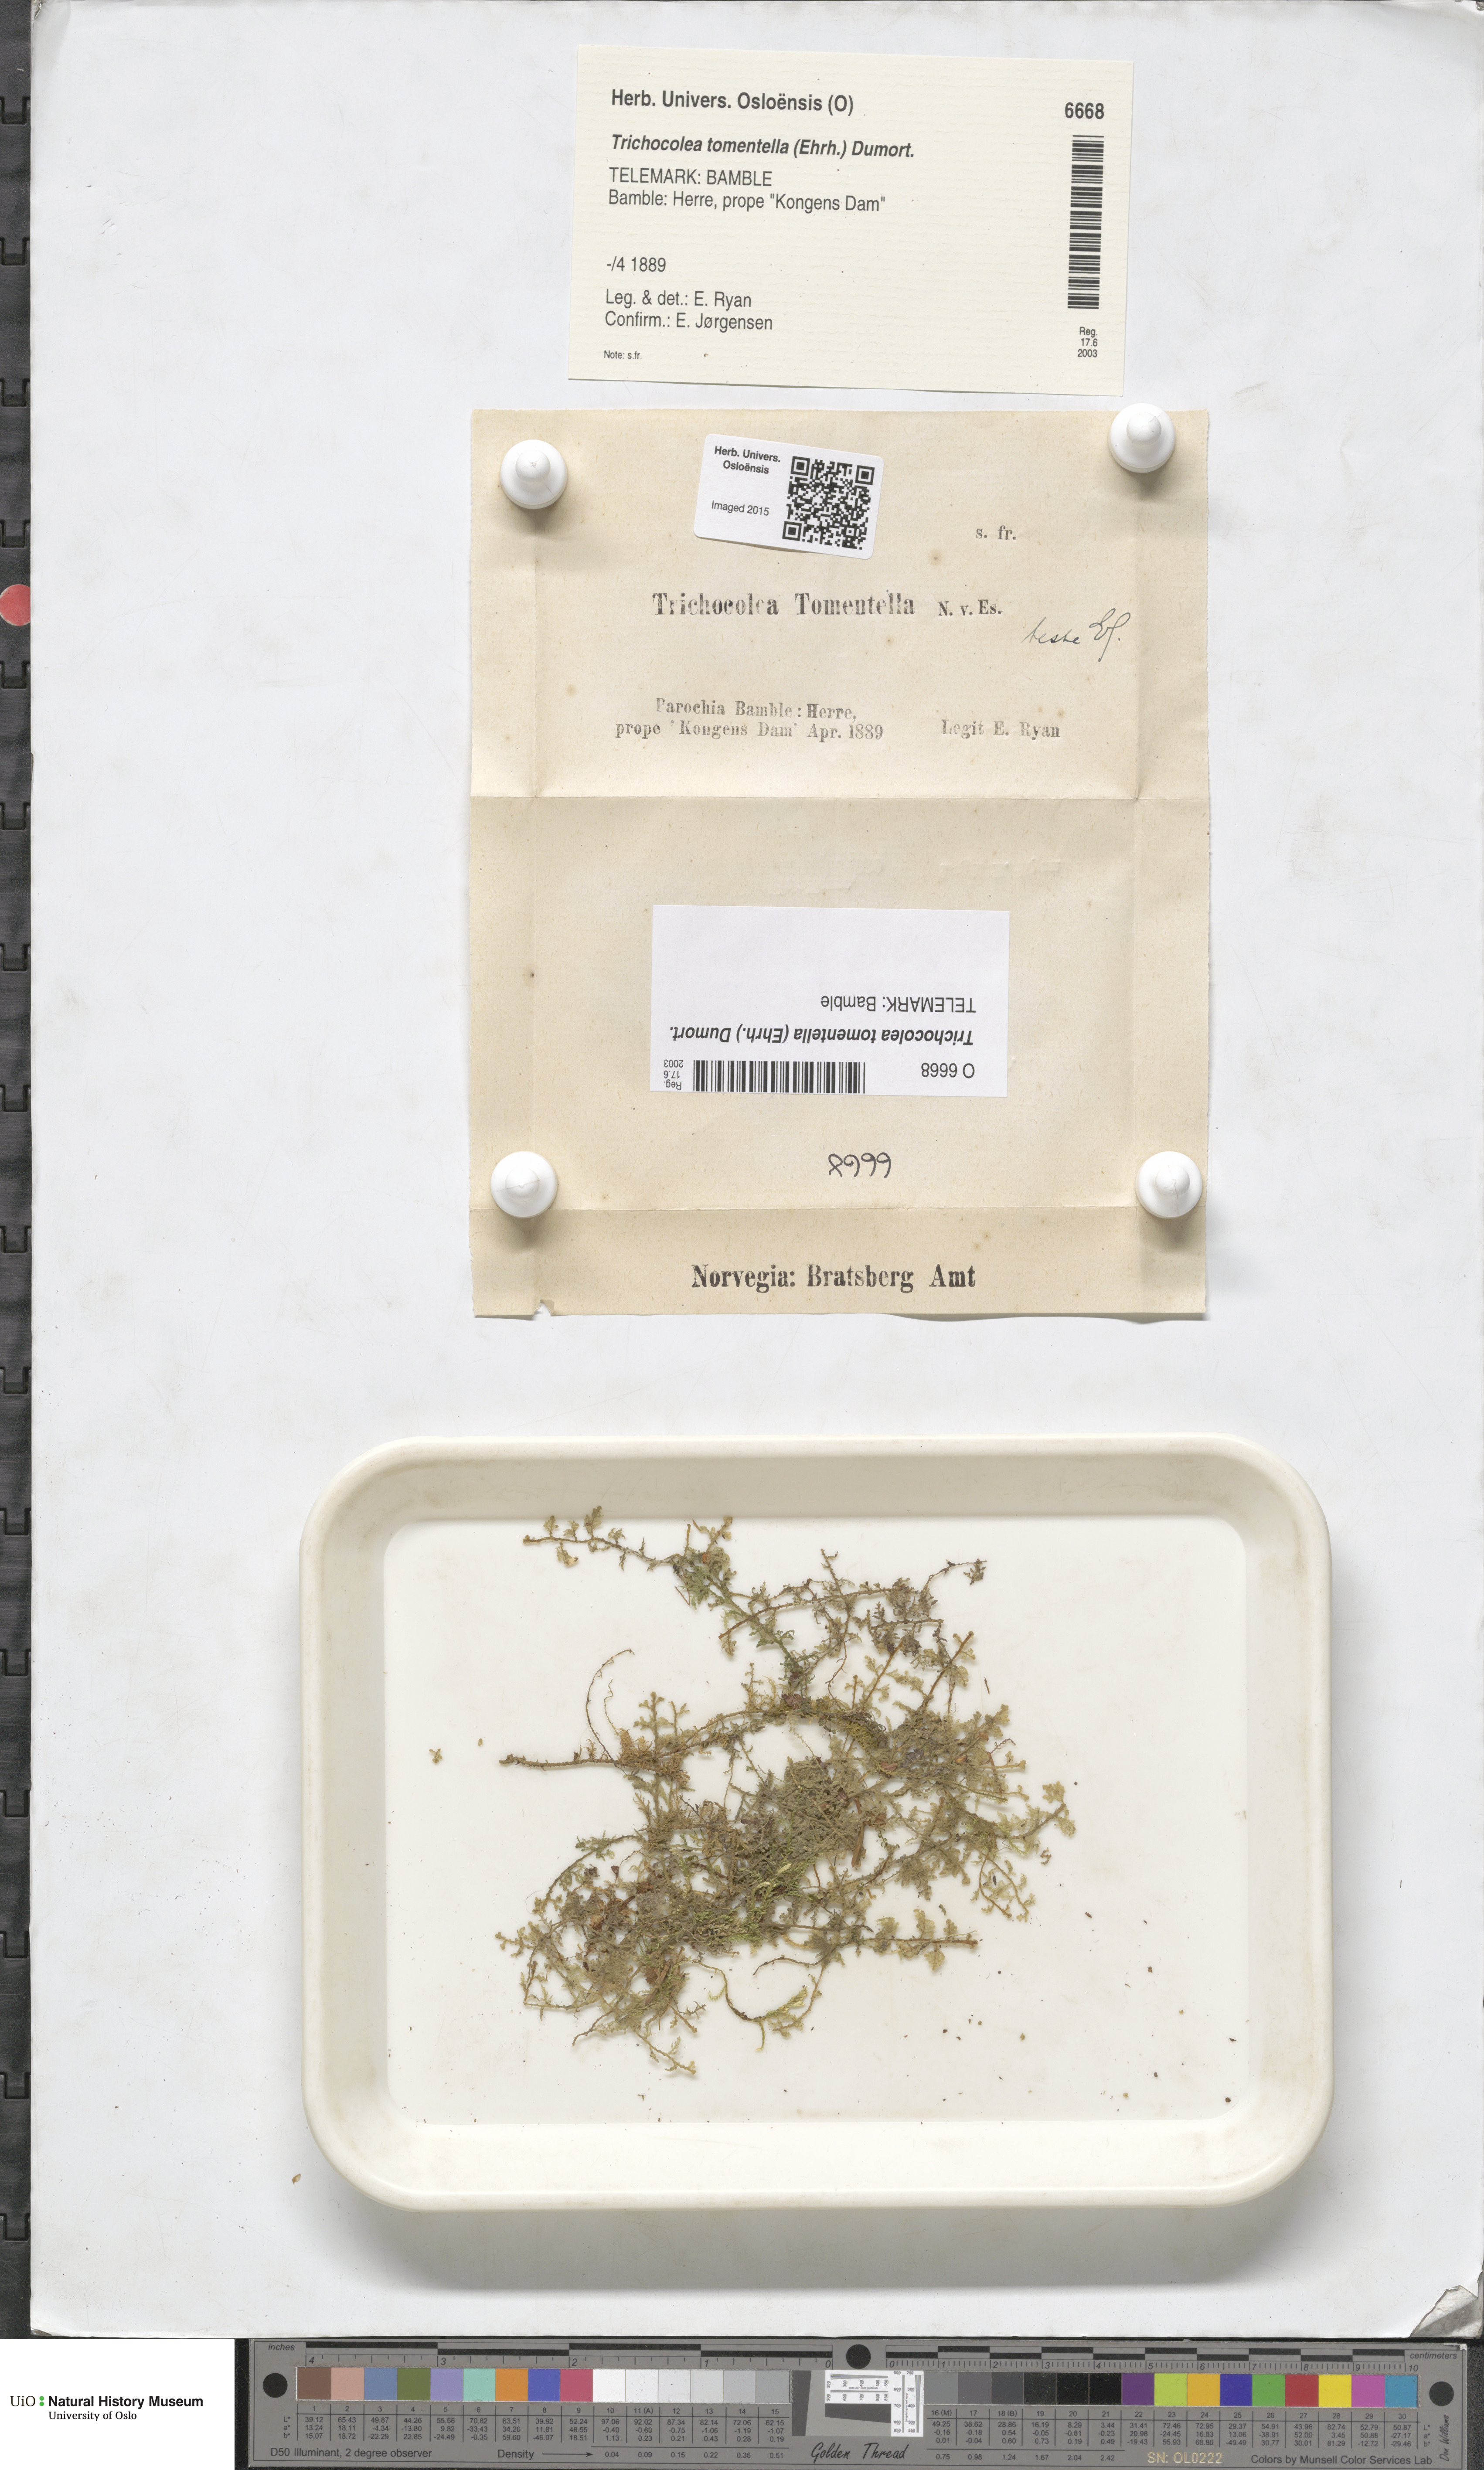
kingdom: Plantae
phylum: Marchantiophyta
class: Jungermanniopsida
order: Jungermanniales
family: Trichocoleaceae
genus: Trichocolea
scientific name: Trichocolea tomentella
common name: Woolly liverwort
